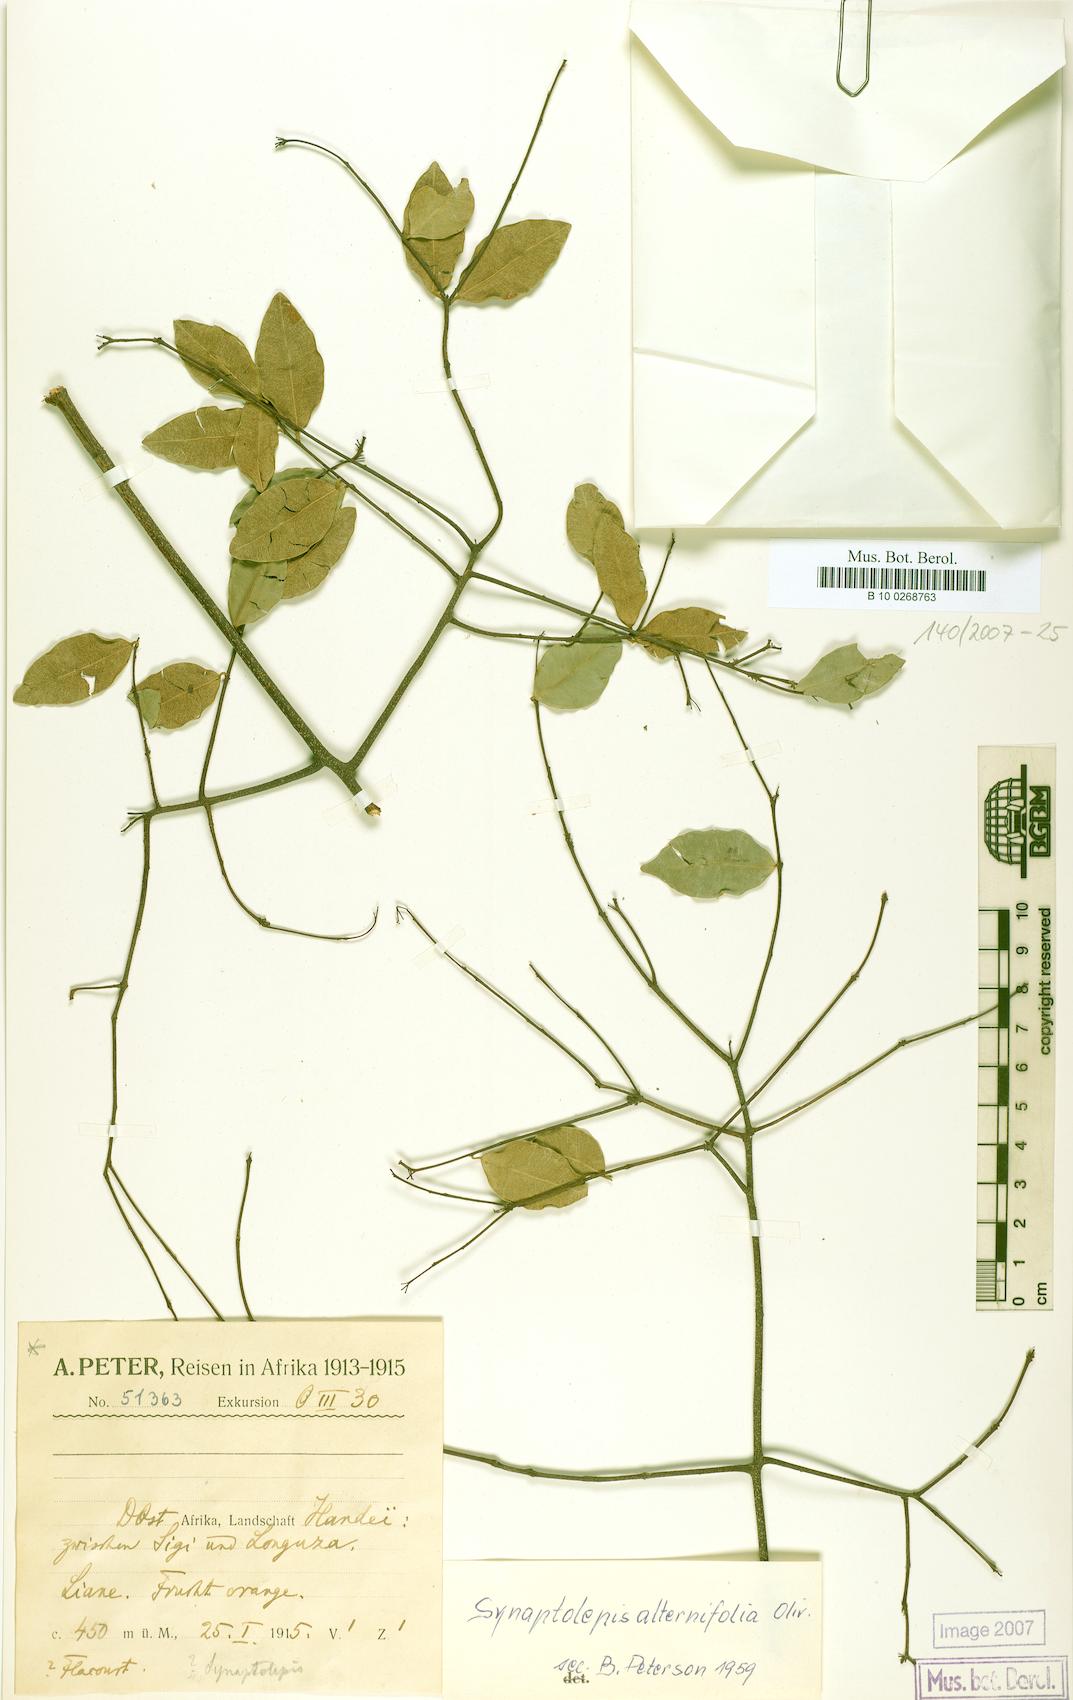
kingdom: Plantae
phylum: Tracheophyta
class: Magnoliopsida
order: Malvales
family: Thymelaeaceae
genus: Synaptolepis
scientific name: Synaptolepis alternifolia
